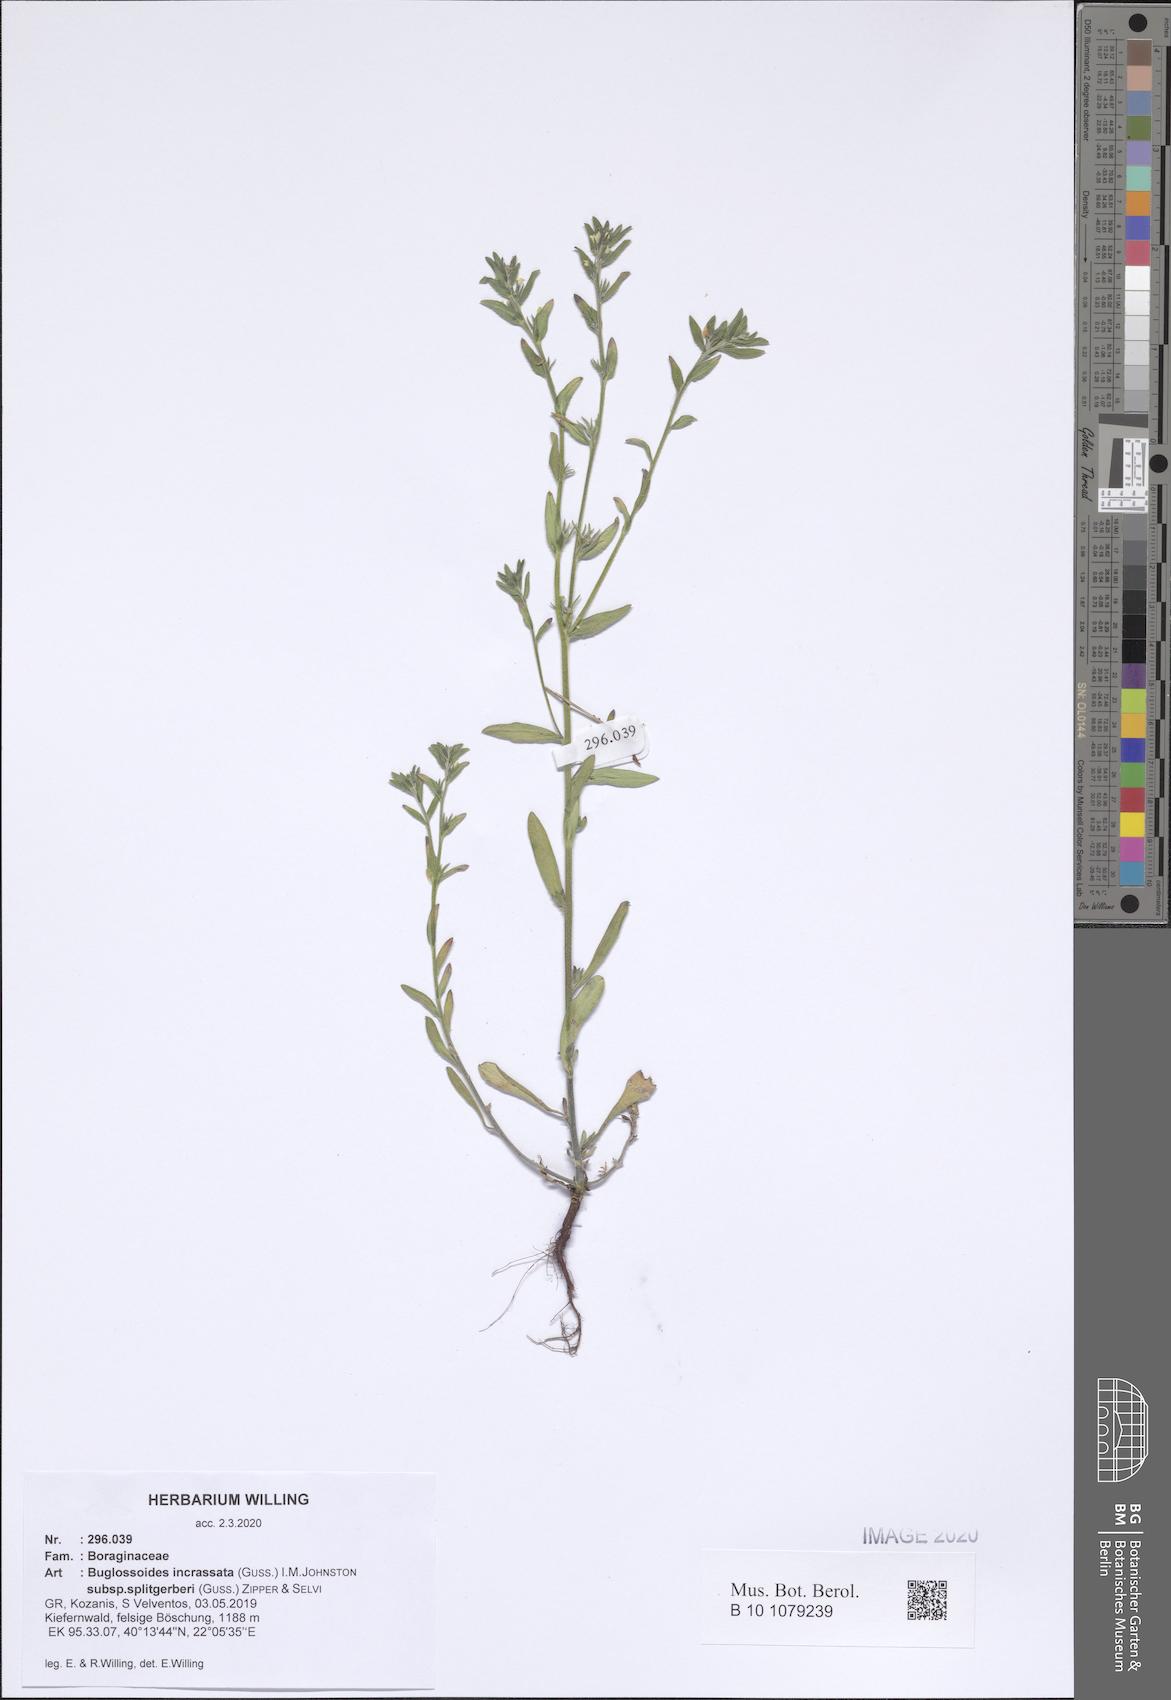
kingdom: Plantae
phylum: Tracheophyta
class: Magnoliopsida
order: Boraginales
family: Boraginaceae
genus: Buglossoides
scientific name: Buglossoides incrassata
